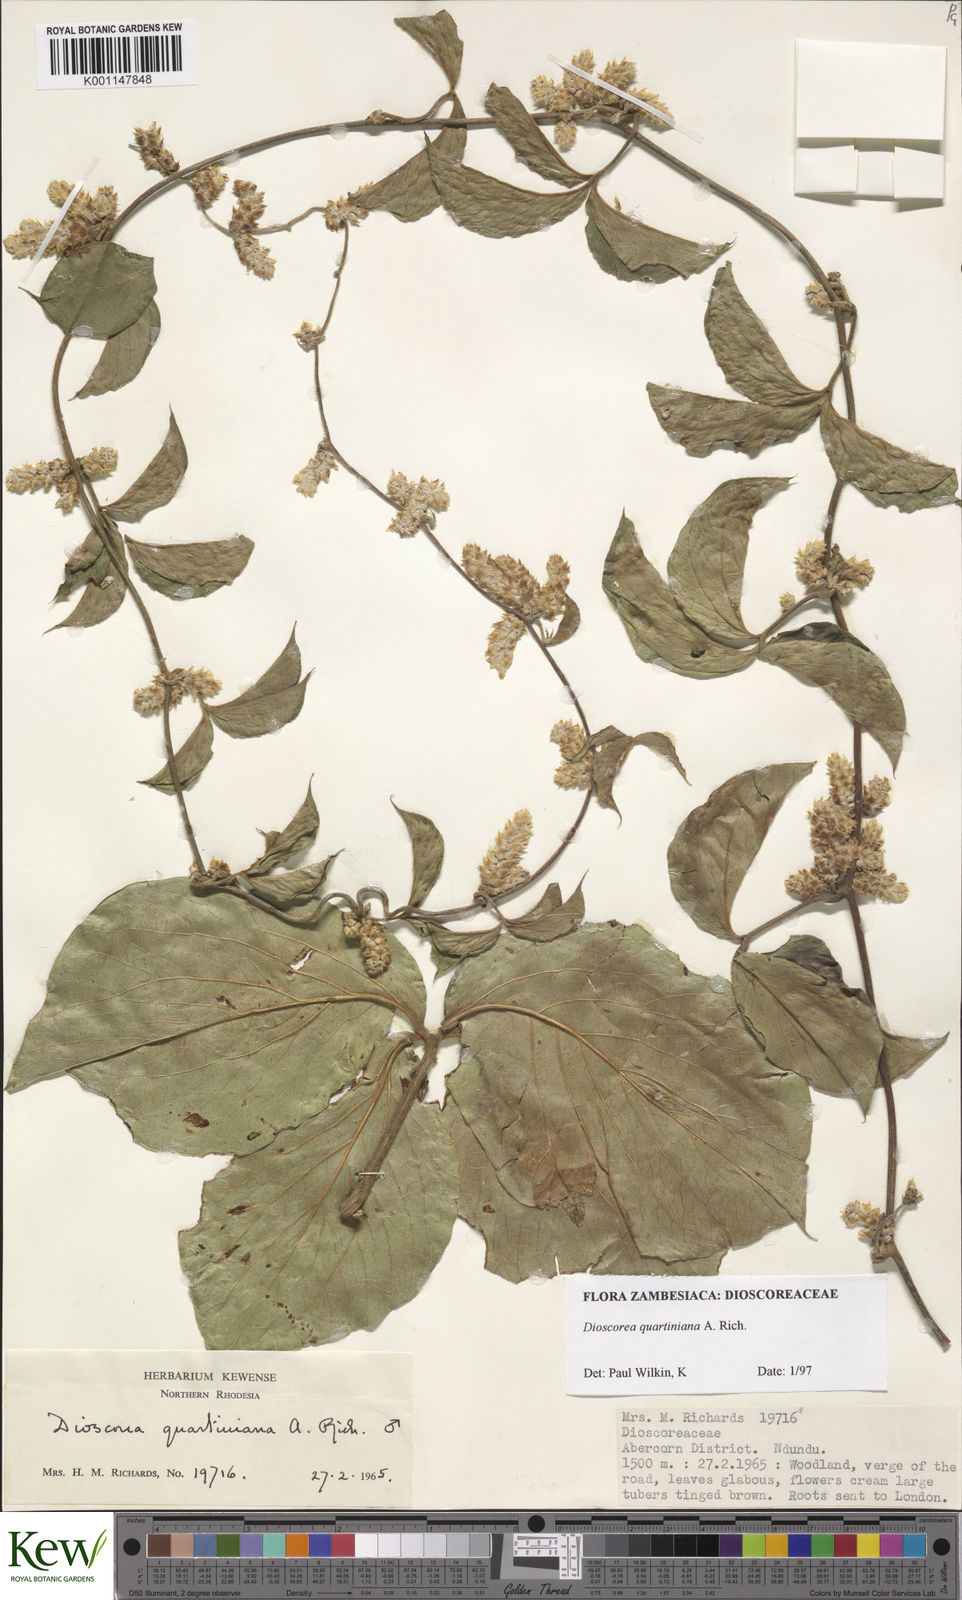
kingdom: Plantae
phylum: Tracheophyta
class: Liliopsida
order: Dioscoreales
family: Dioscoreaceae
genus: Dioscorea
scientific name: Dioscorea quartiniana
